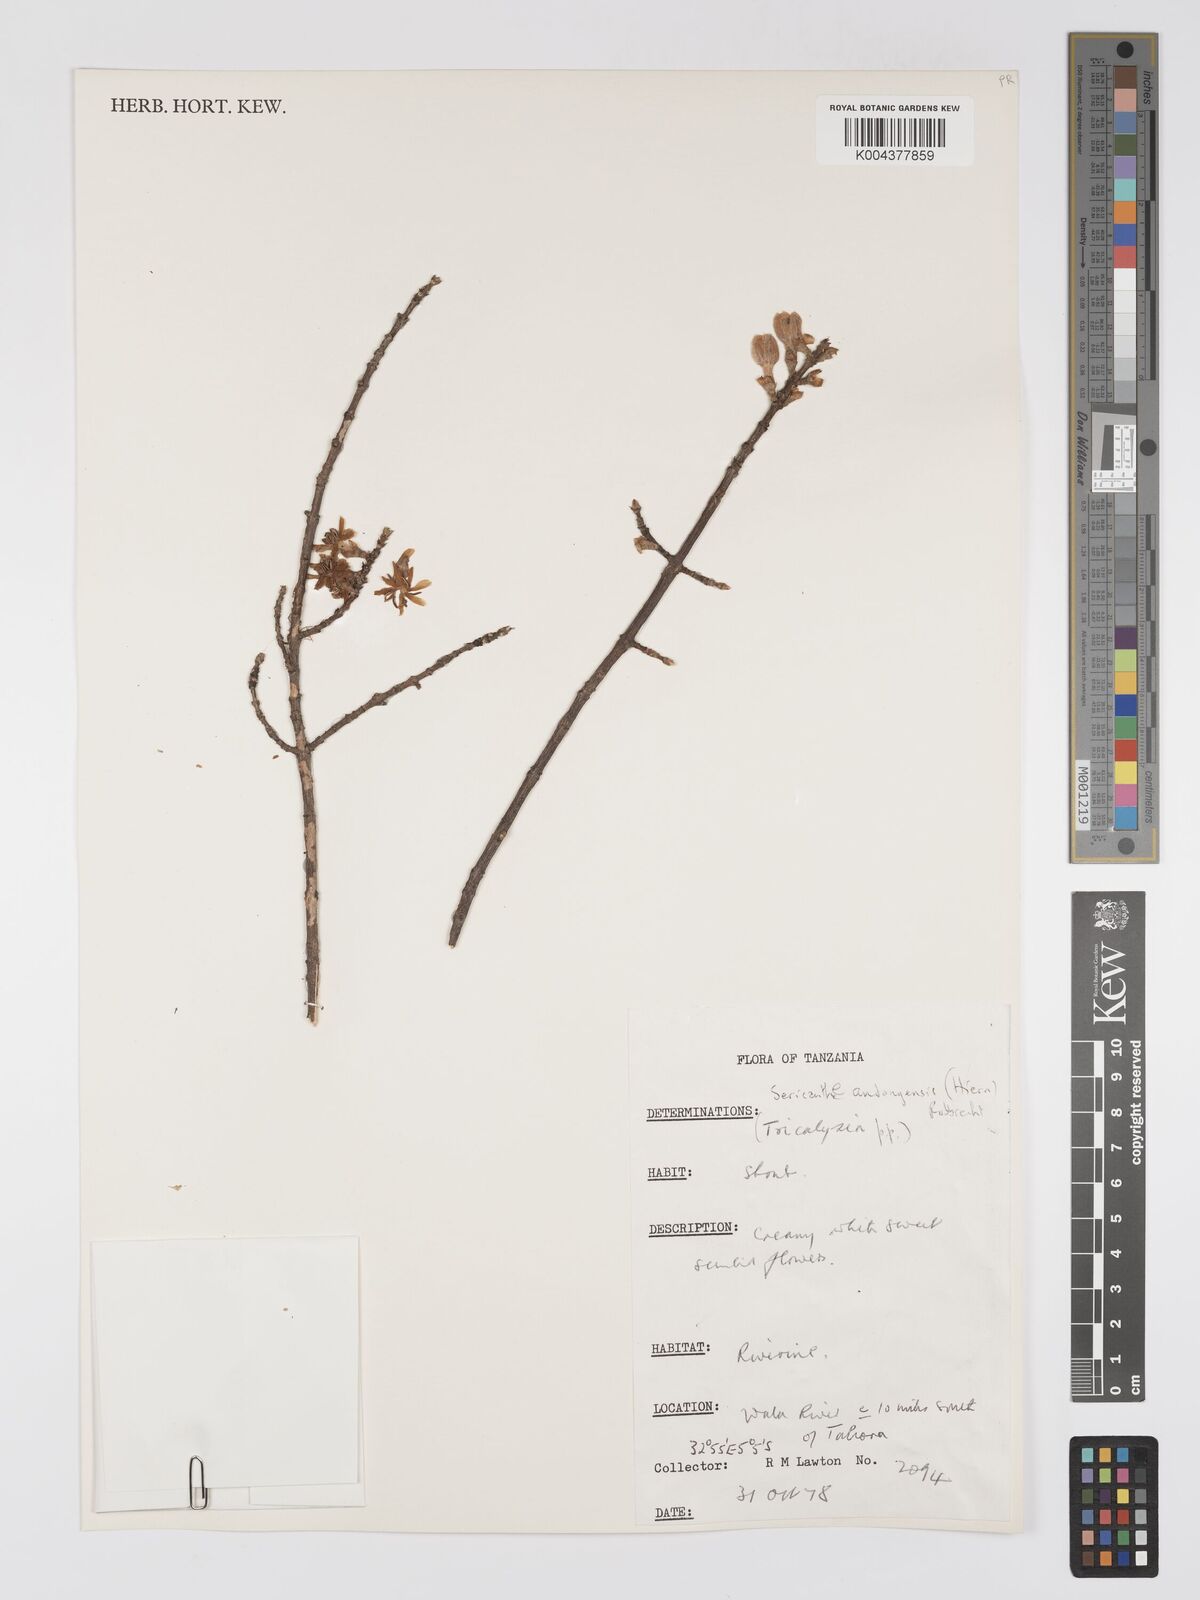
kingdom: Plantae
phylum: Tracheophyta
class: Magnoliopsida
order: Gentianales
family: Rubiaceae
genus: Sericanthe
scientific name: Sericanthe andongensis
